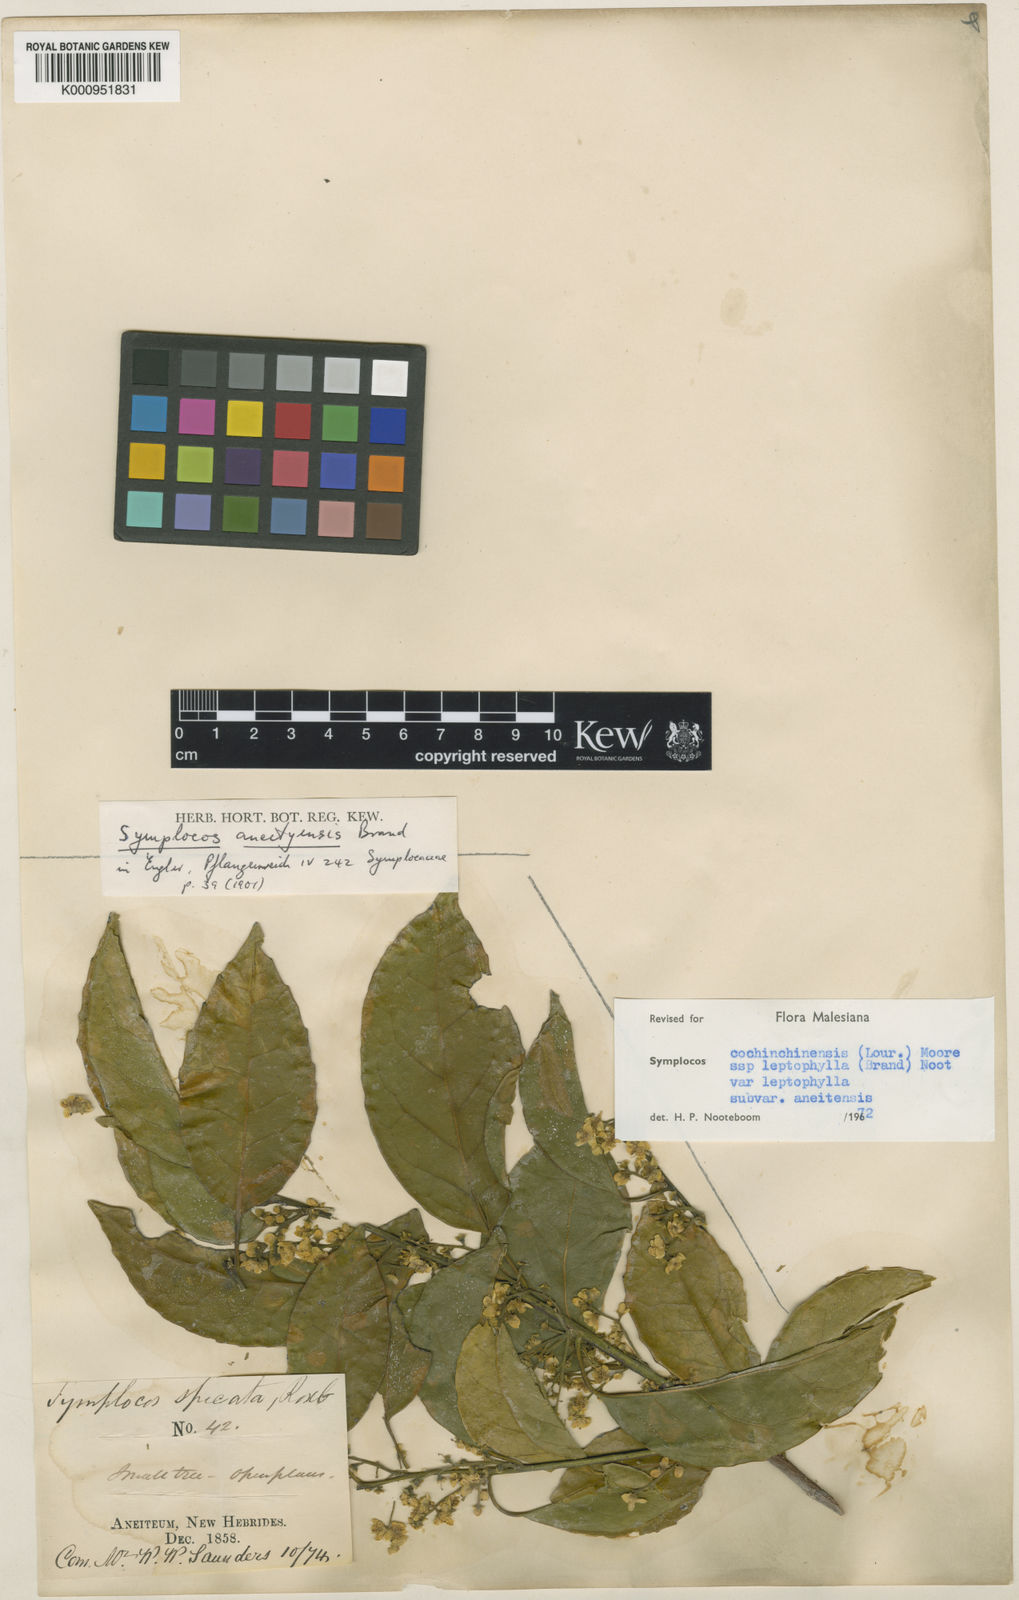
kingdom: Plantae
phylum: Tracheophyta
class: Magnoliopsida
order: Ericales
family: Symplocaceae
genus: Symplocos
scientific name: Symplocos cochinchinensis
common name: Buff hazelwood
